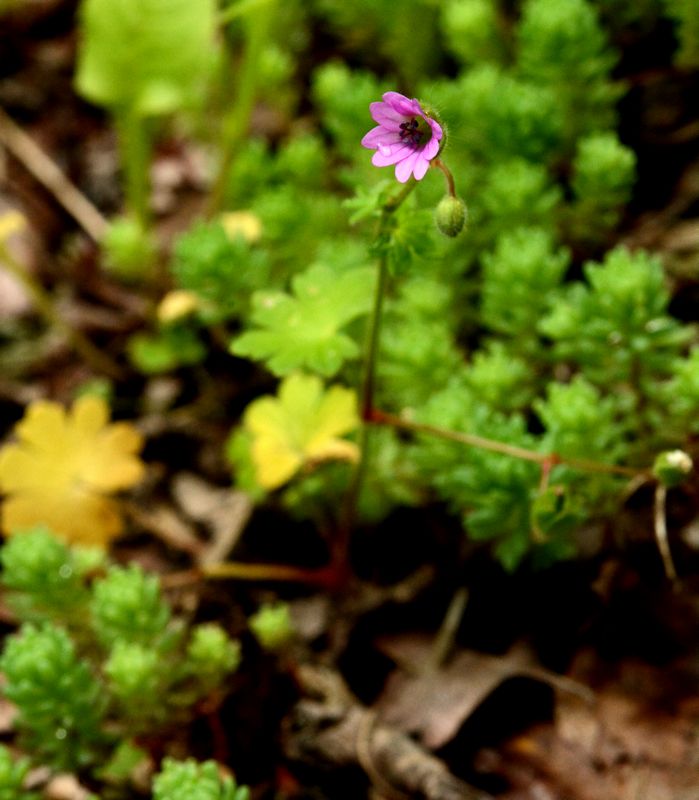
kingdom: Plantae
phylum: Tracheophyta
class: Magnoliopsida
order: Geraniales
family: Geraniaceae
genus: Geranium
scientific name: Geranium molle
